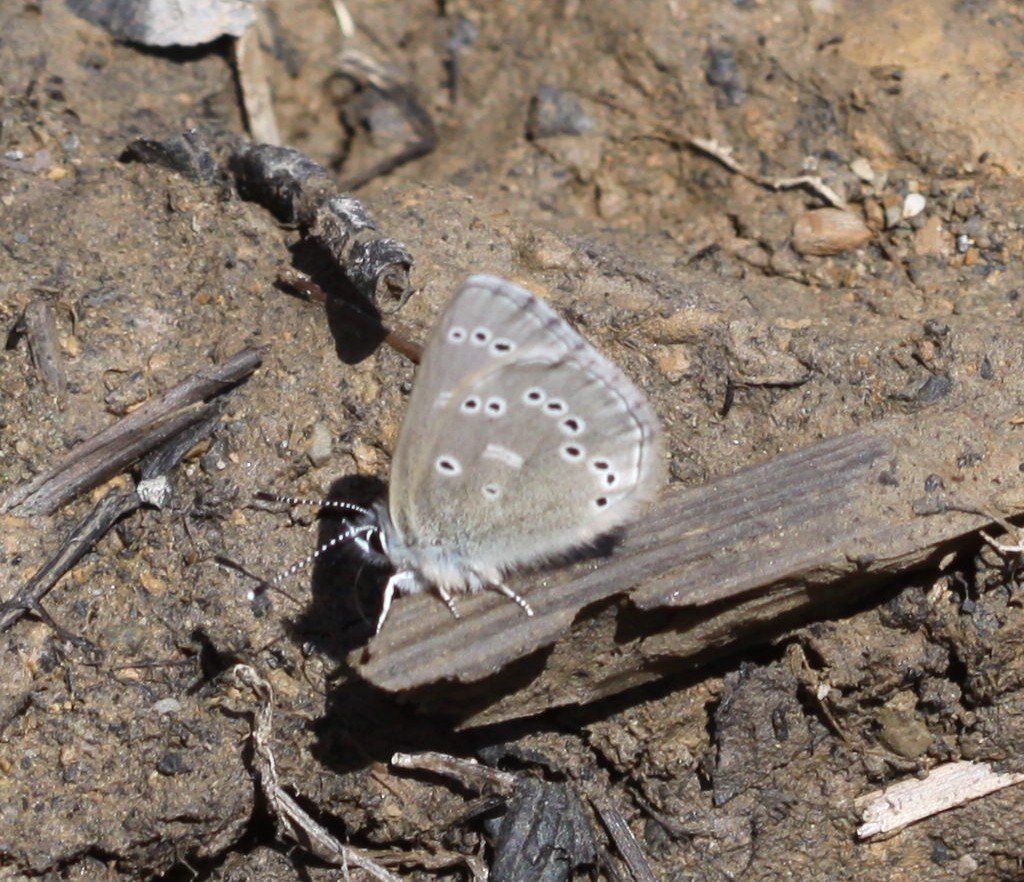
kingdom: Animalia
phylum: Arthropoda
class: Insecta
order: Lepidoptera
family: Lycaenidae
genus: Glaucopsyche
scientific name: Glaucopsyche lygdamus
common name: Silvery Blue
